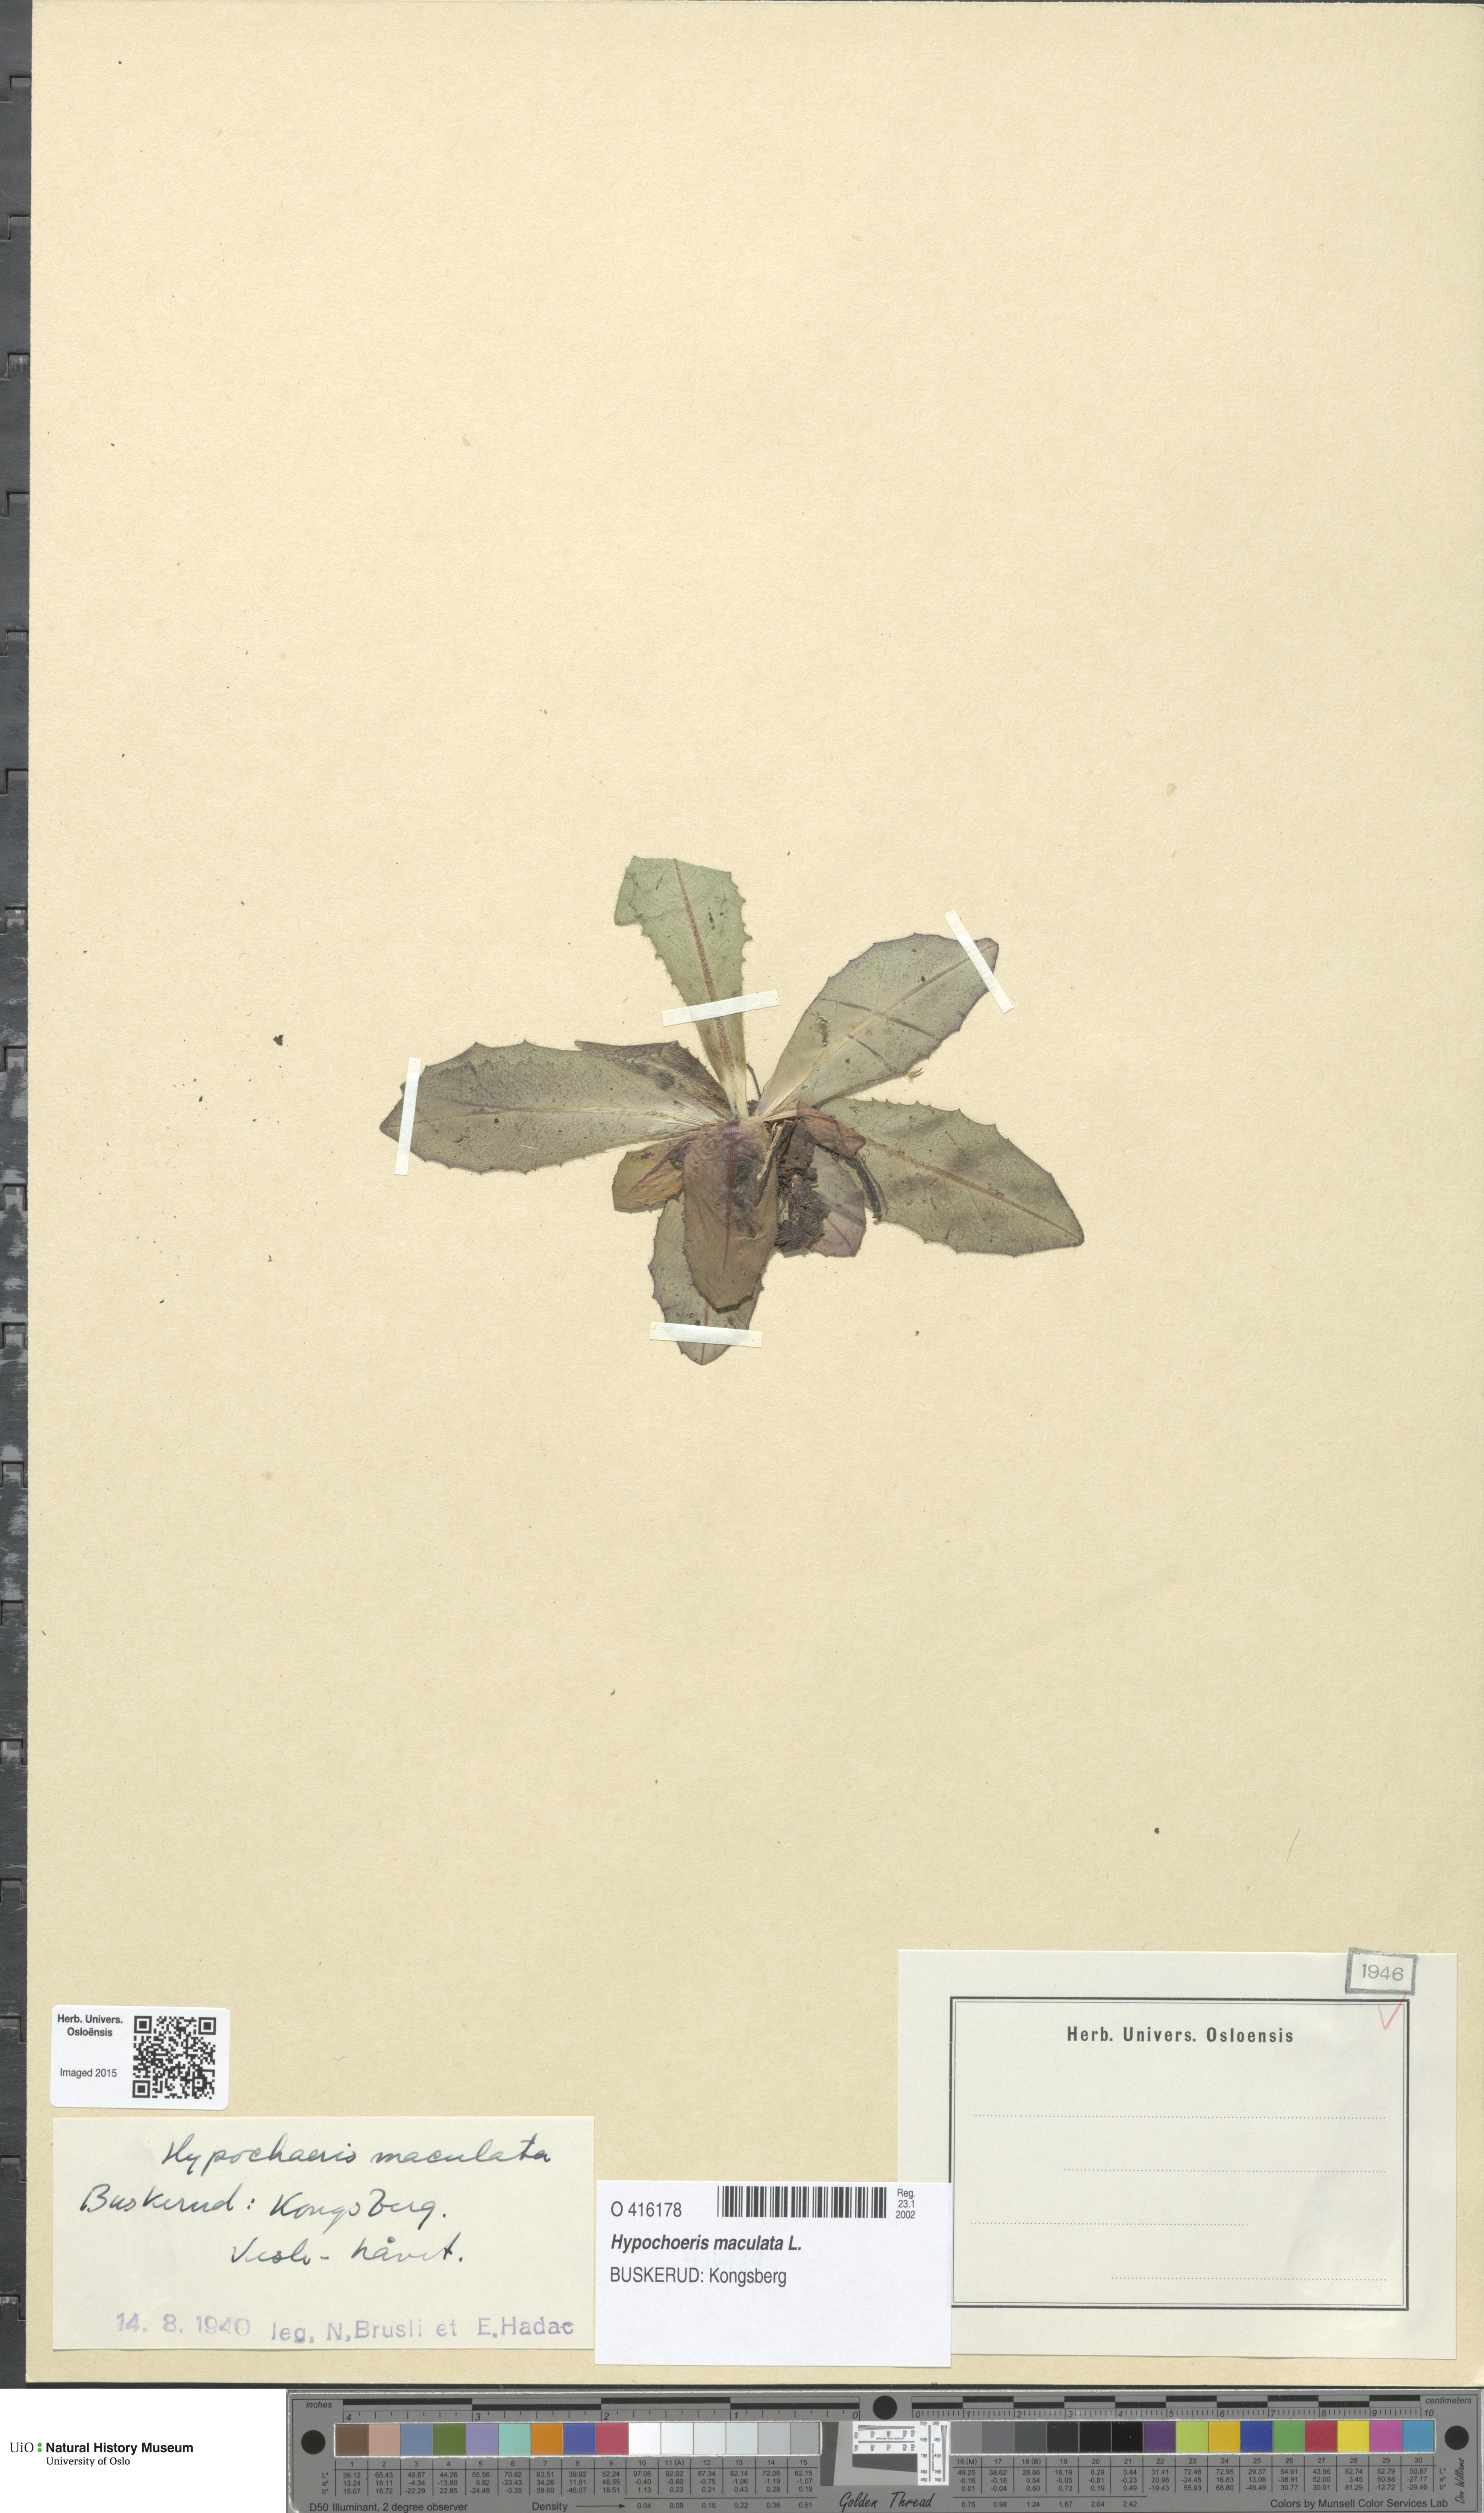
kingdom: Plantae
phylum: Tracheophyta
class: Magnoliopsida
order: Asterales
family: Asteraceae
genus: Trommsdorffia
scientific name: Trommsdorffia maculata
